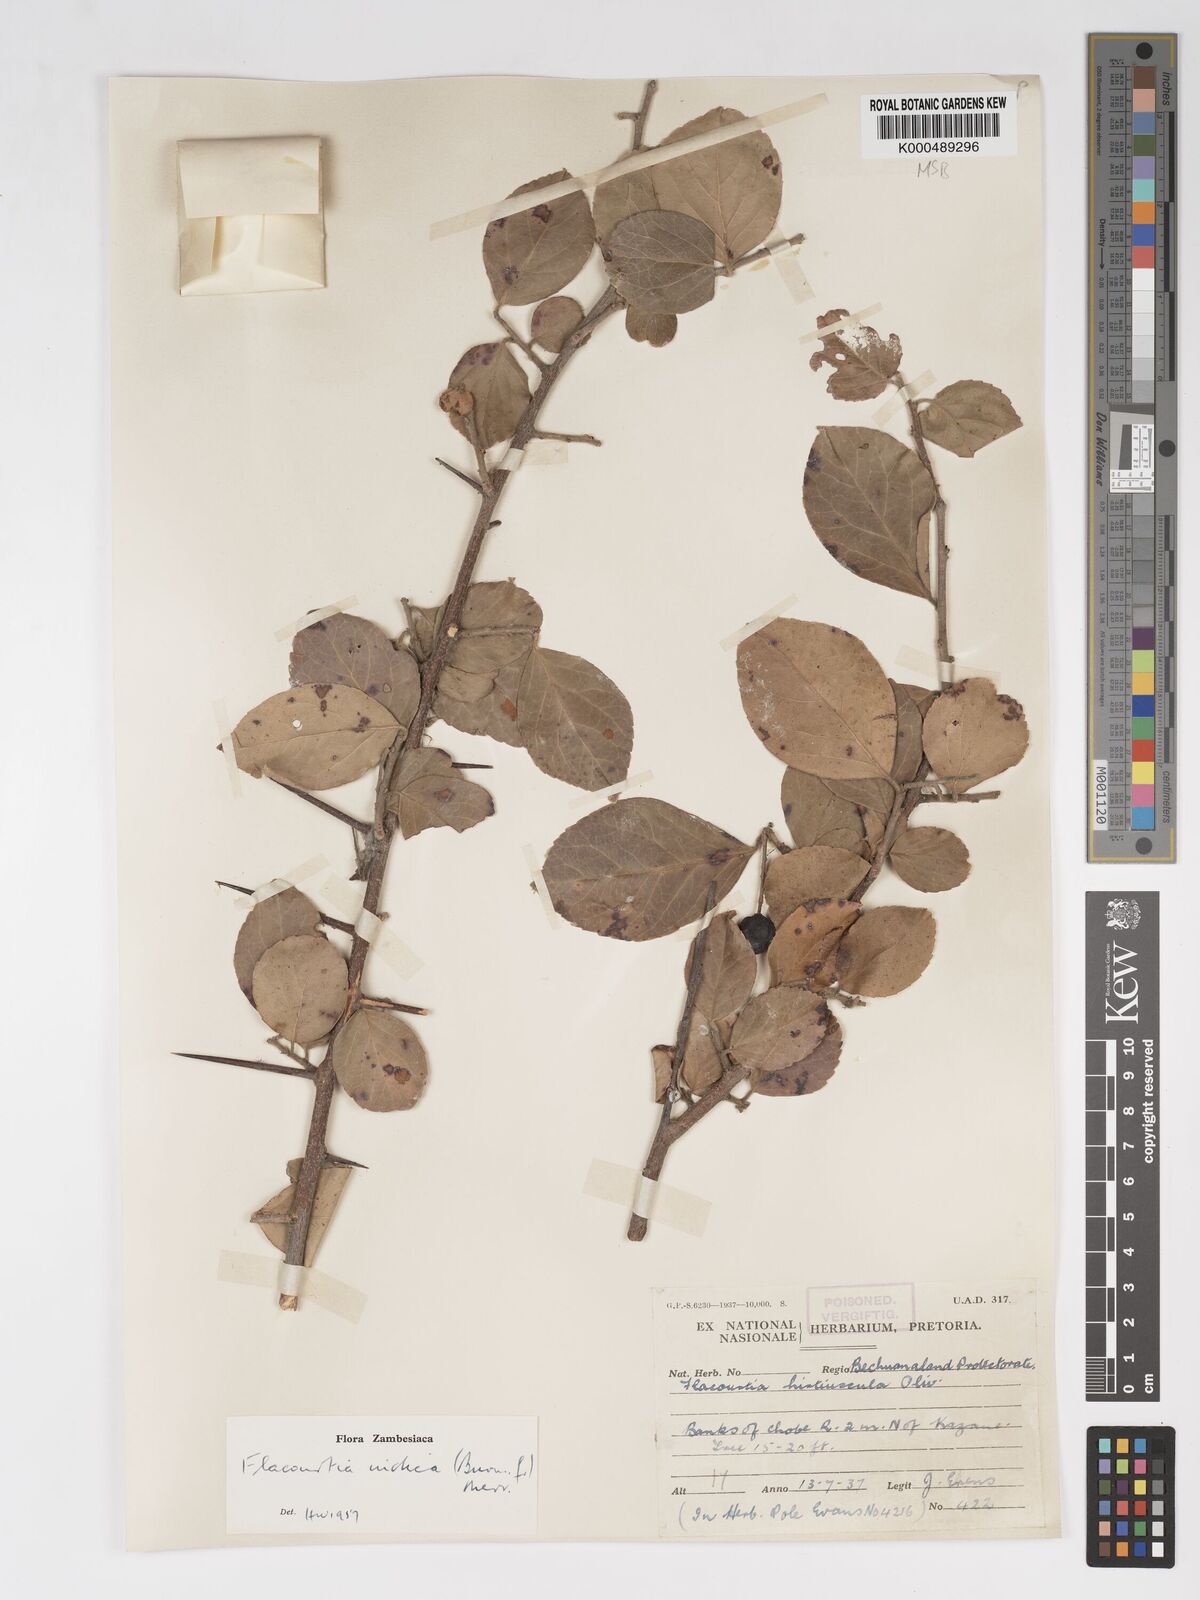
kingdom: Plantae
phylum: Tracheophyta
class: Magnoliopsida
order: Malpighiales
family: Salicaceae
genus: Flacourtia
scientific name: Flacourtia indica
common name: Governor's plum
